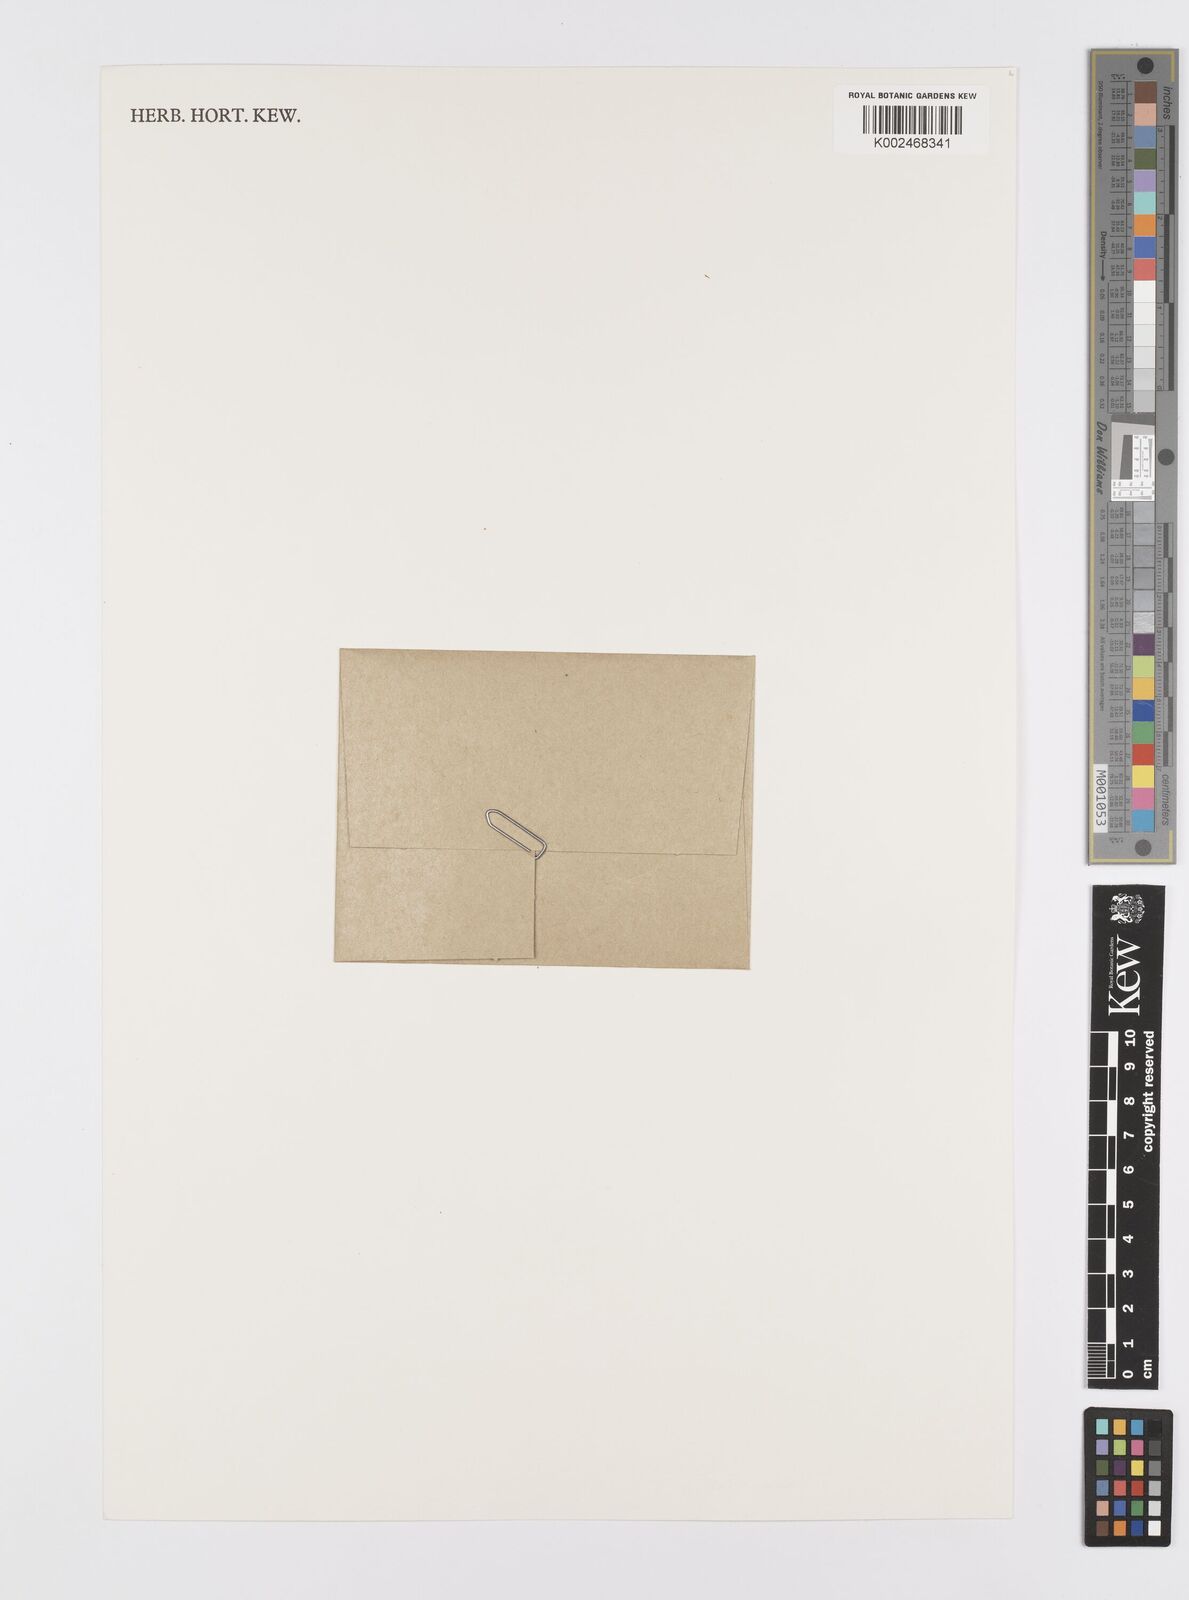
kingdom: Plantae
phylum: Tracheophyta
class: Liliopsida
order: Alismatales
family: Araceae
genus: Wolffiella
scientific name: Wolffiella
